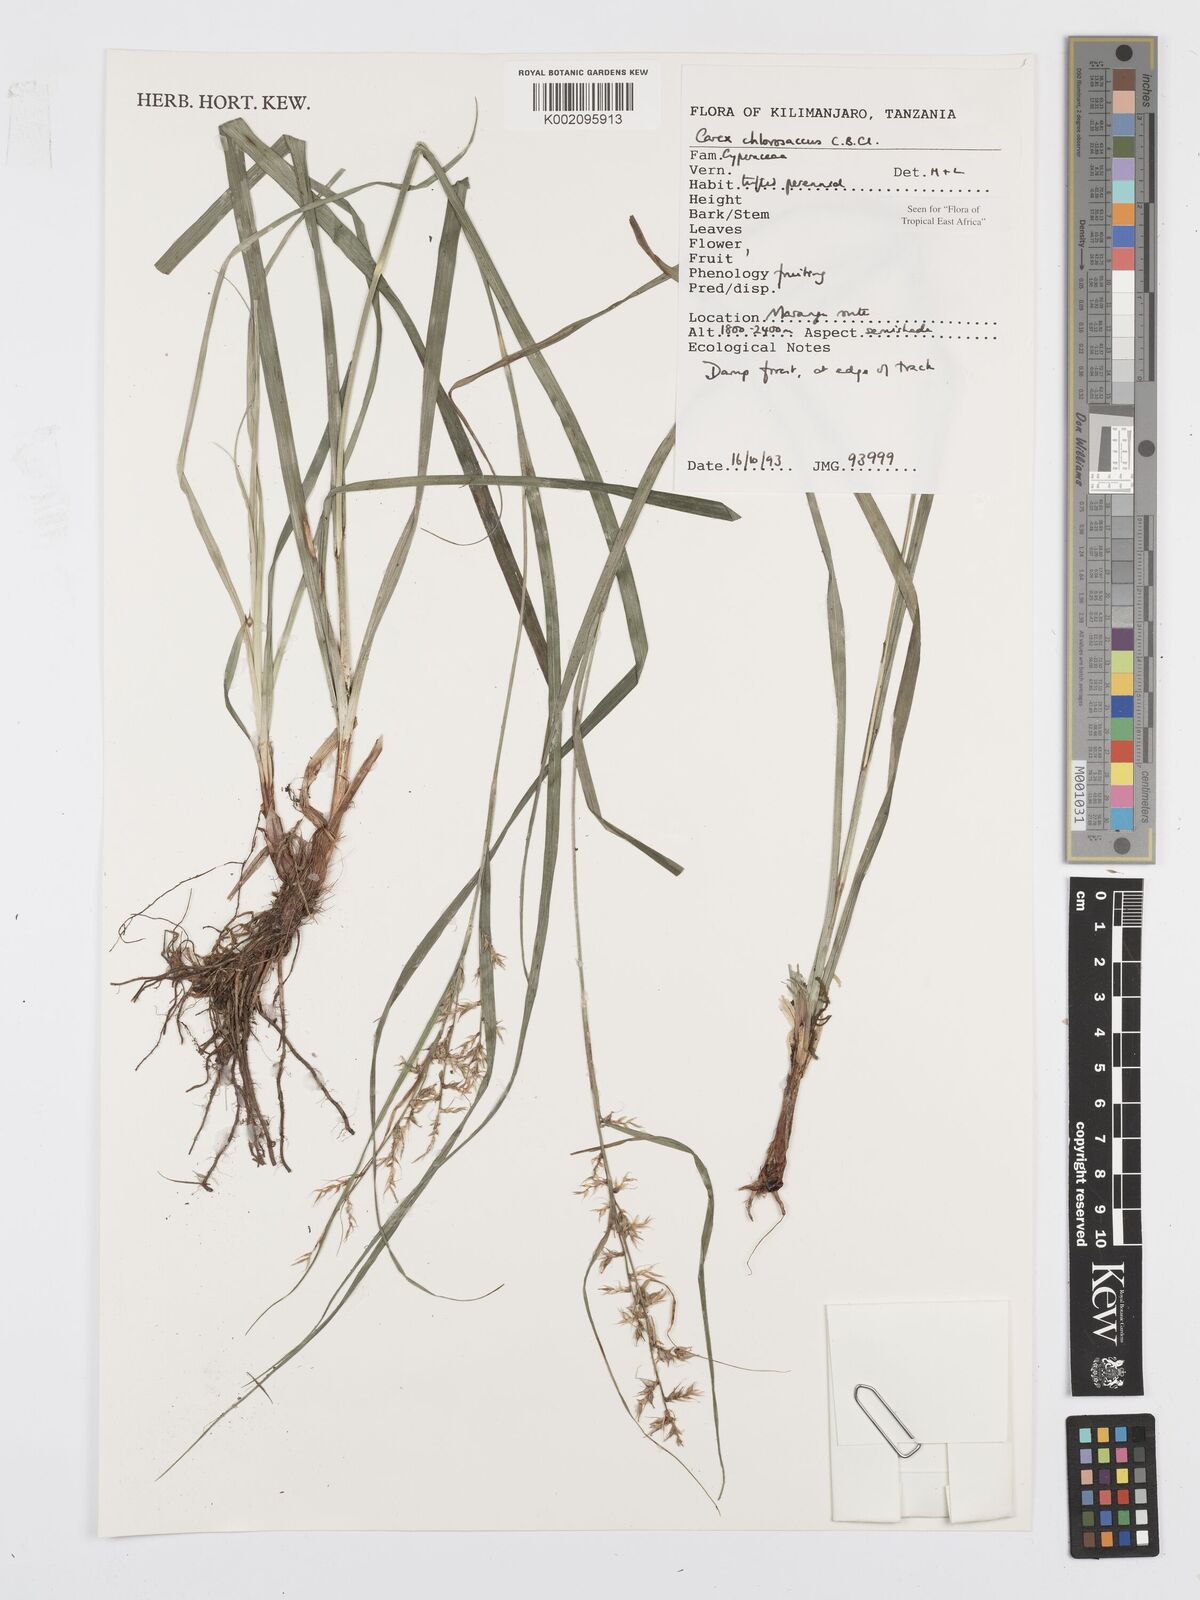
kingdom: Plantae
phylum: Tracheophyta
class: Liliopsida
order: Poales
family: Cyperaceae
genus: Carex
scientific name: Carex chlorosaccus
